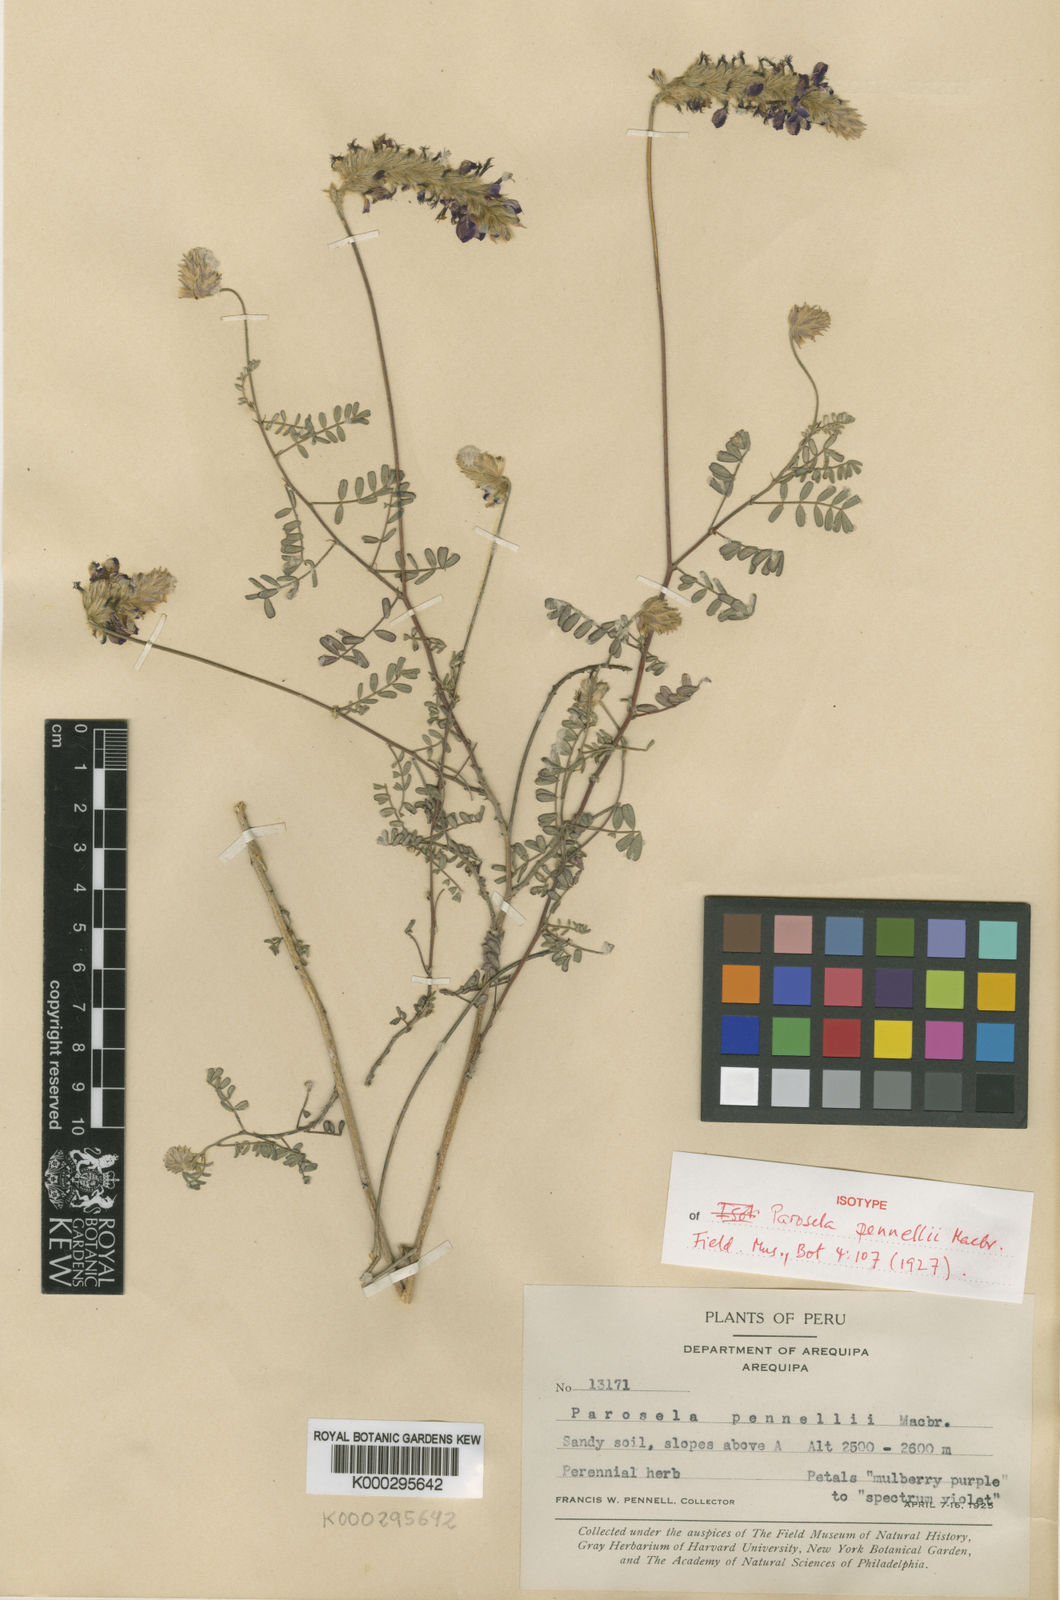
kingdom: Plantae
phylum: Tracheophyta
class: Magnoliopsida
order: Fabales
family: Fabaceae
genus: Dalea
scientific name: Dalea pennellii
